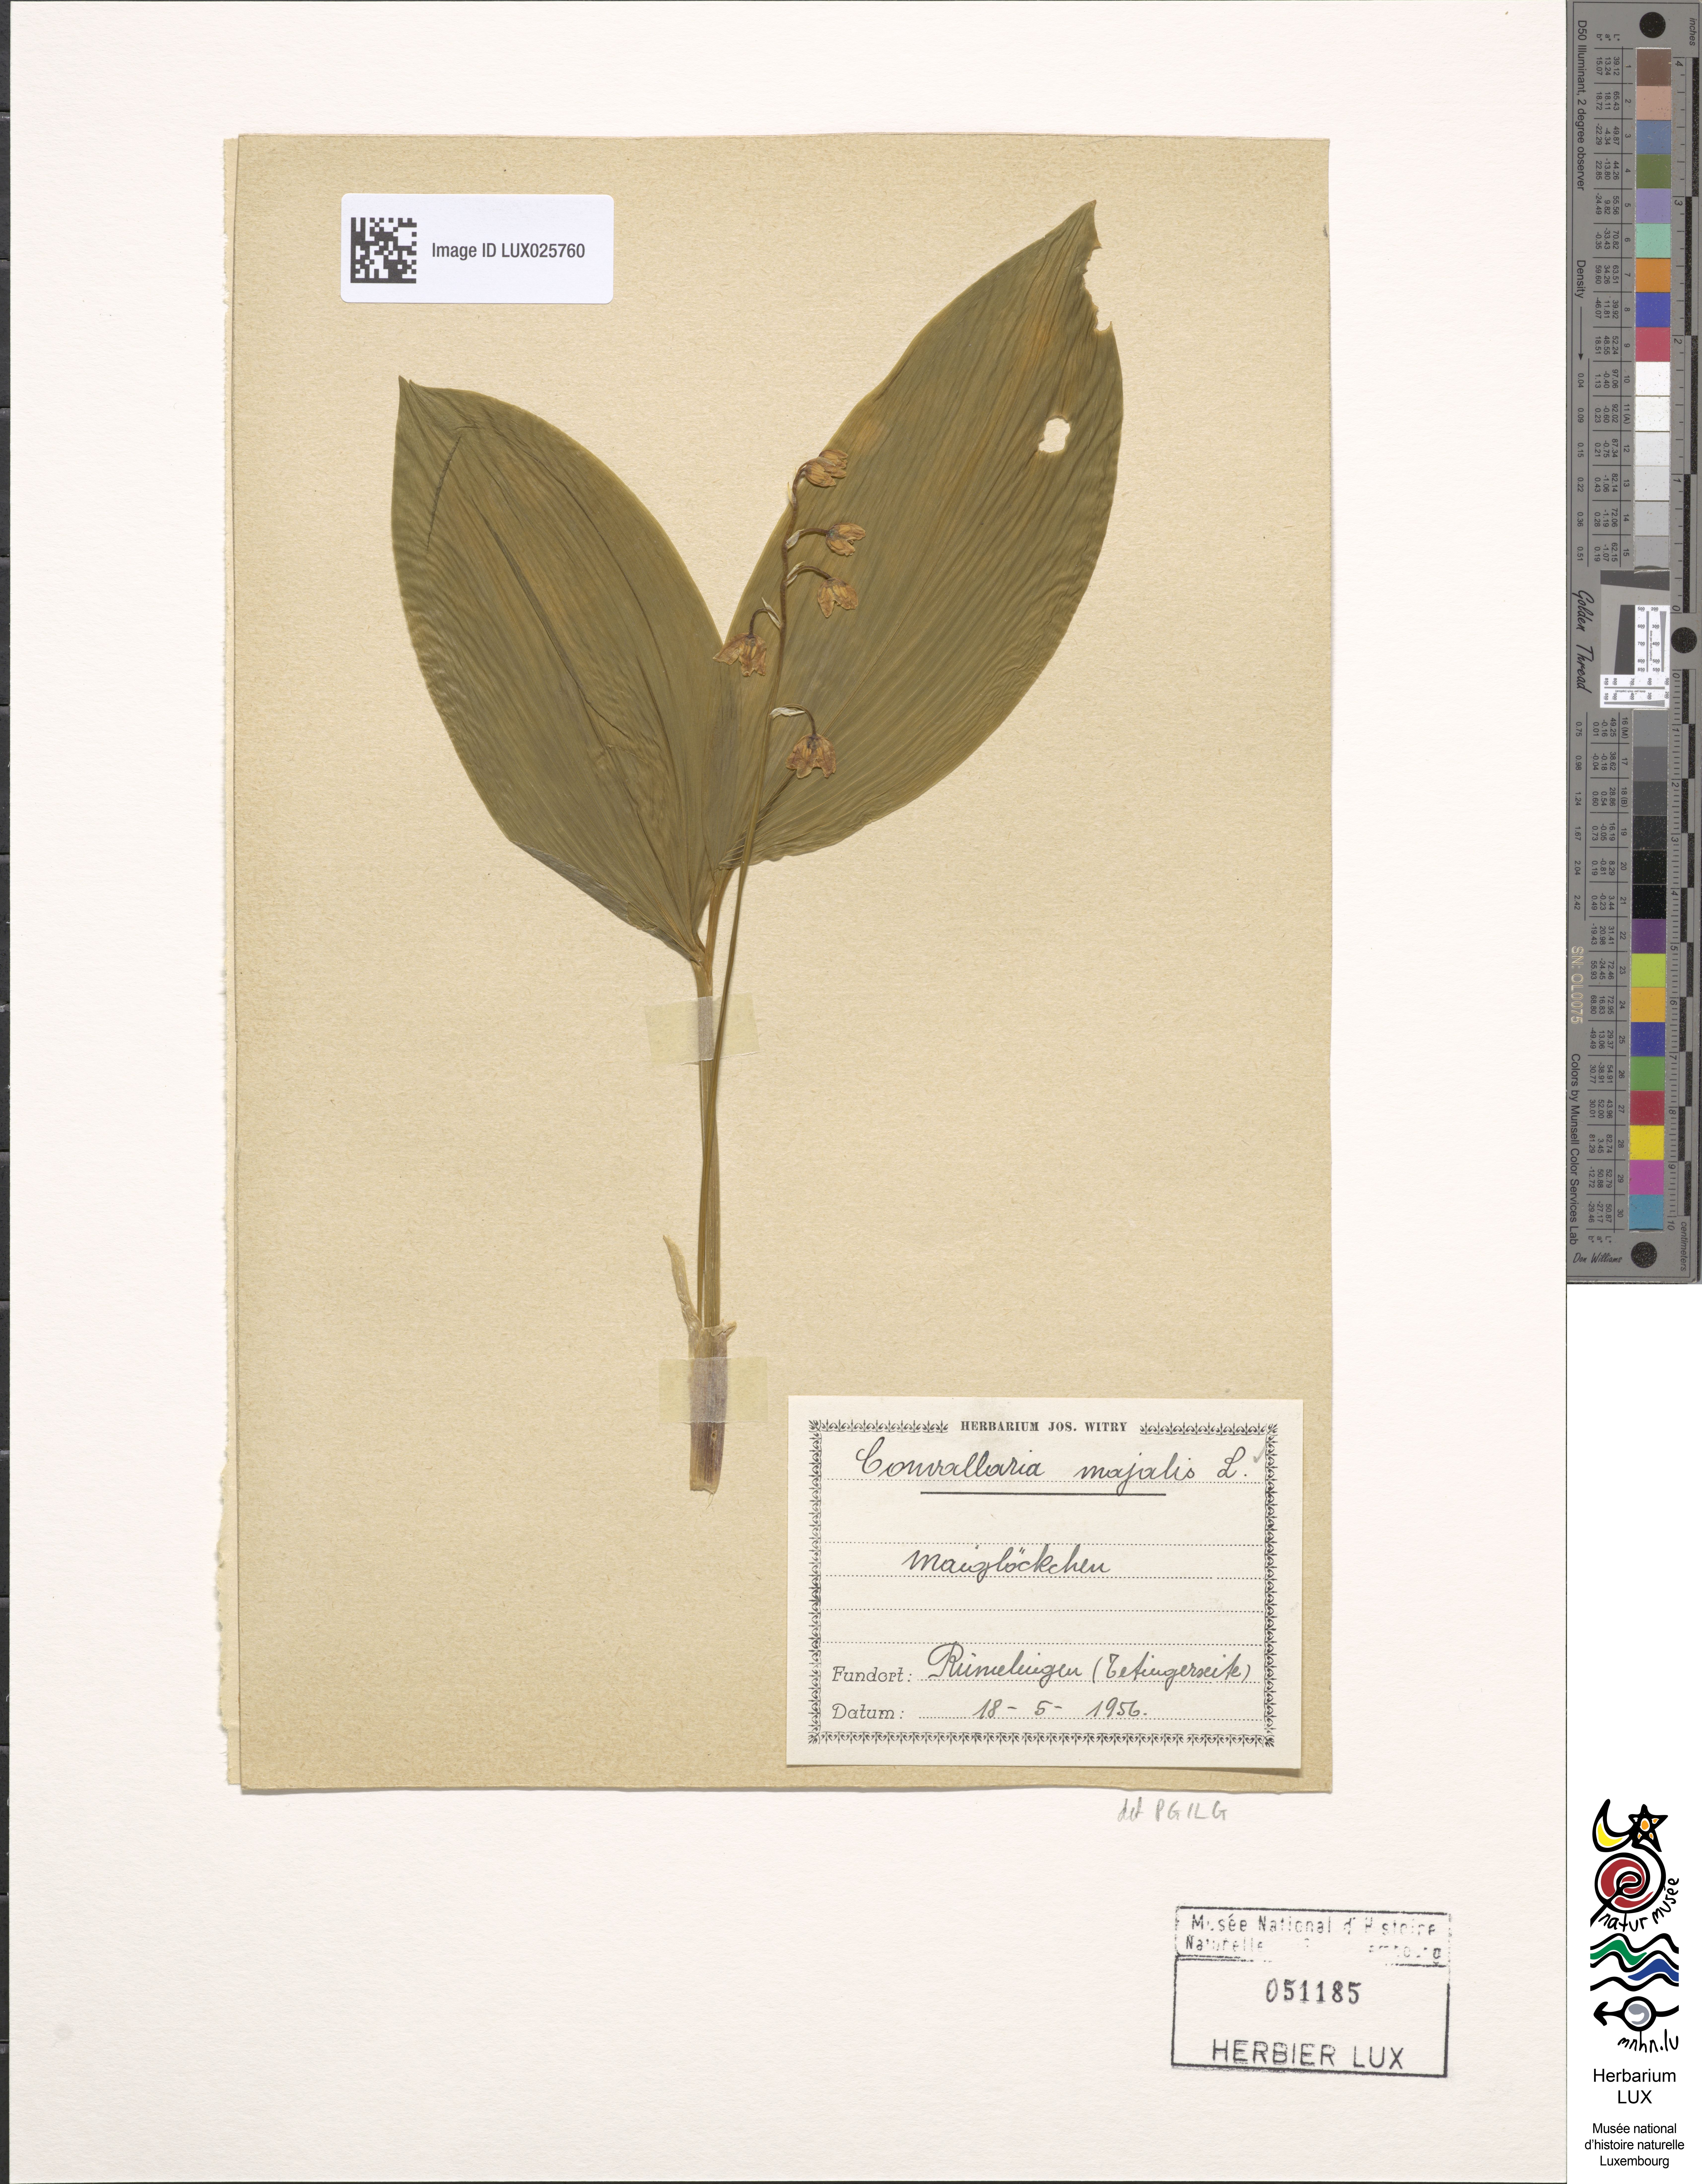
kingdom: Plantae
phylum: Tracheophyta
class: Liliopsida
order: Asparagales
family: Asparagaceae
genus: Convallaria
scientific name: Convallaria majalis
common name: Lily-of-the-valley
